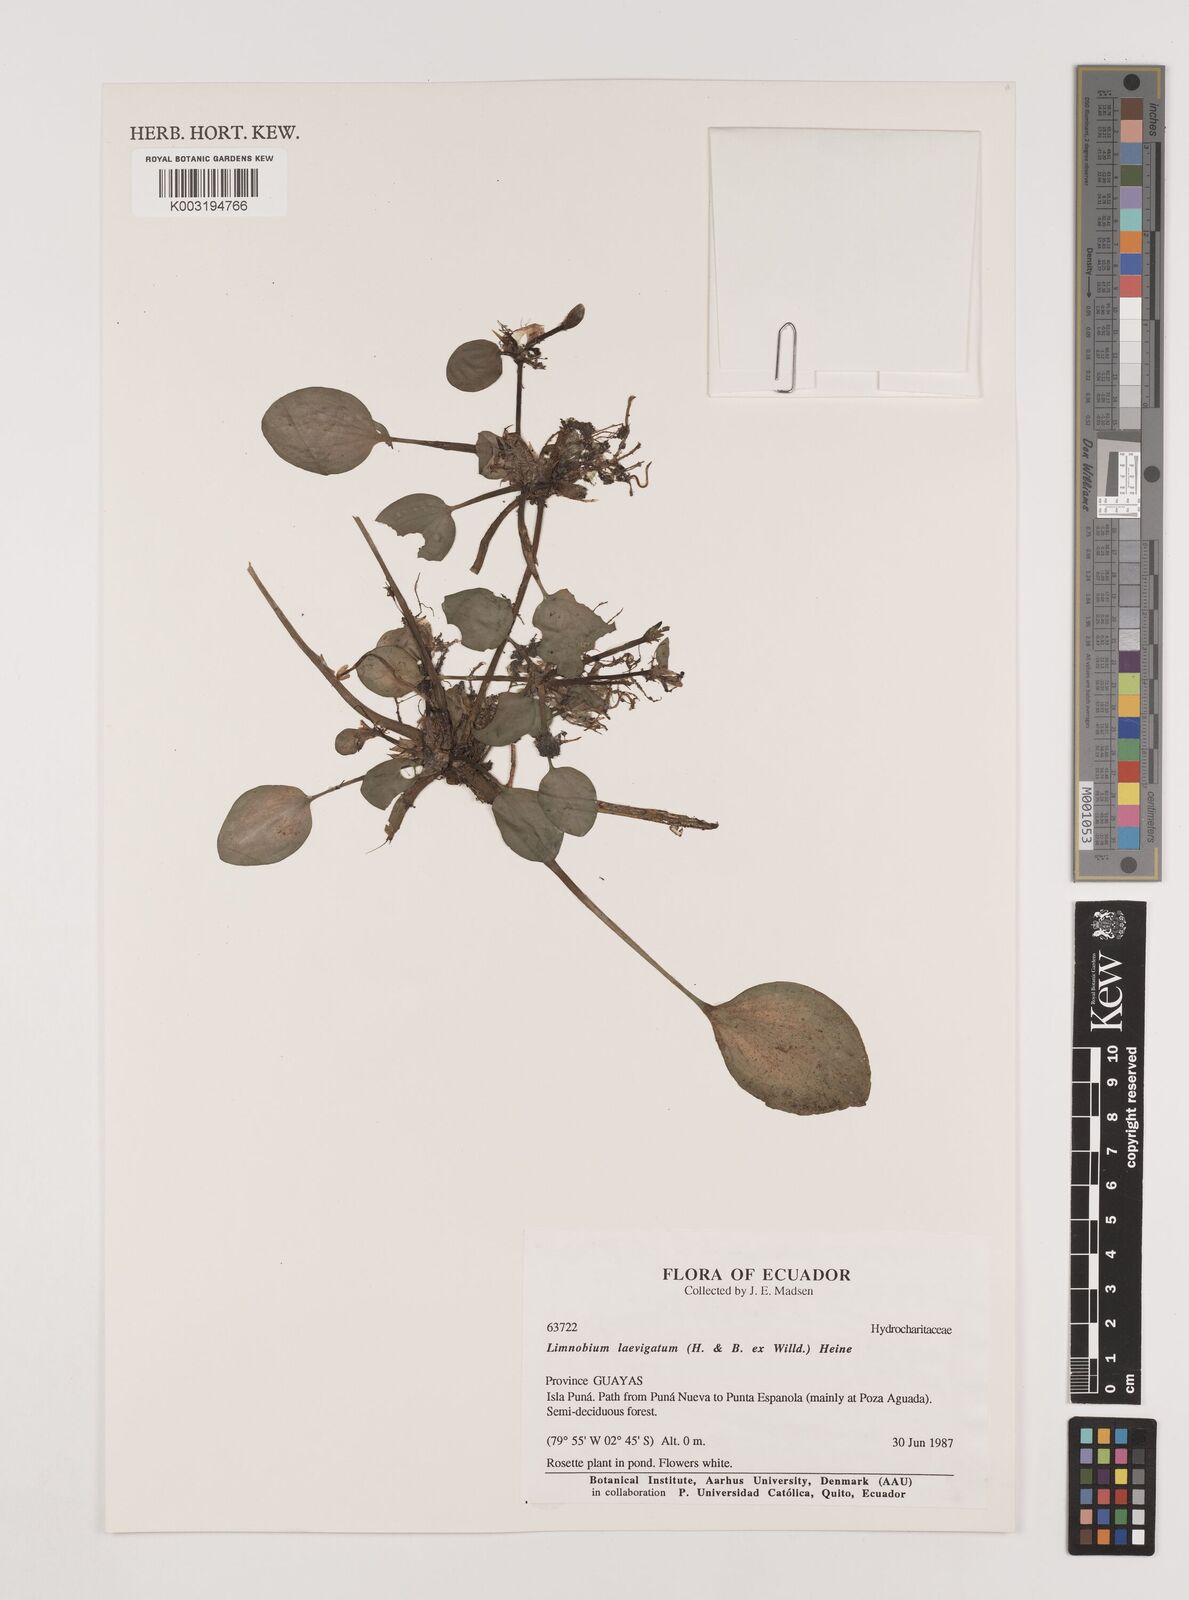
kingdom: Plantae
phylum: Tracheophyta
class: Liliopsida
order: Alismatales
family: Hydrocharitaceae
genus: Hydrocharis
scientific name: Hydrocharis laevigata
